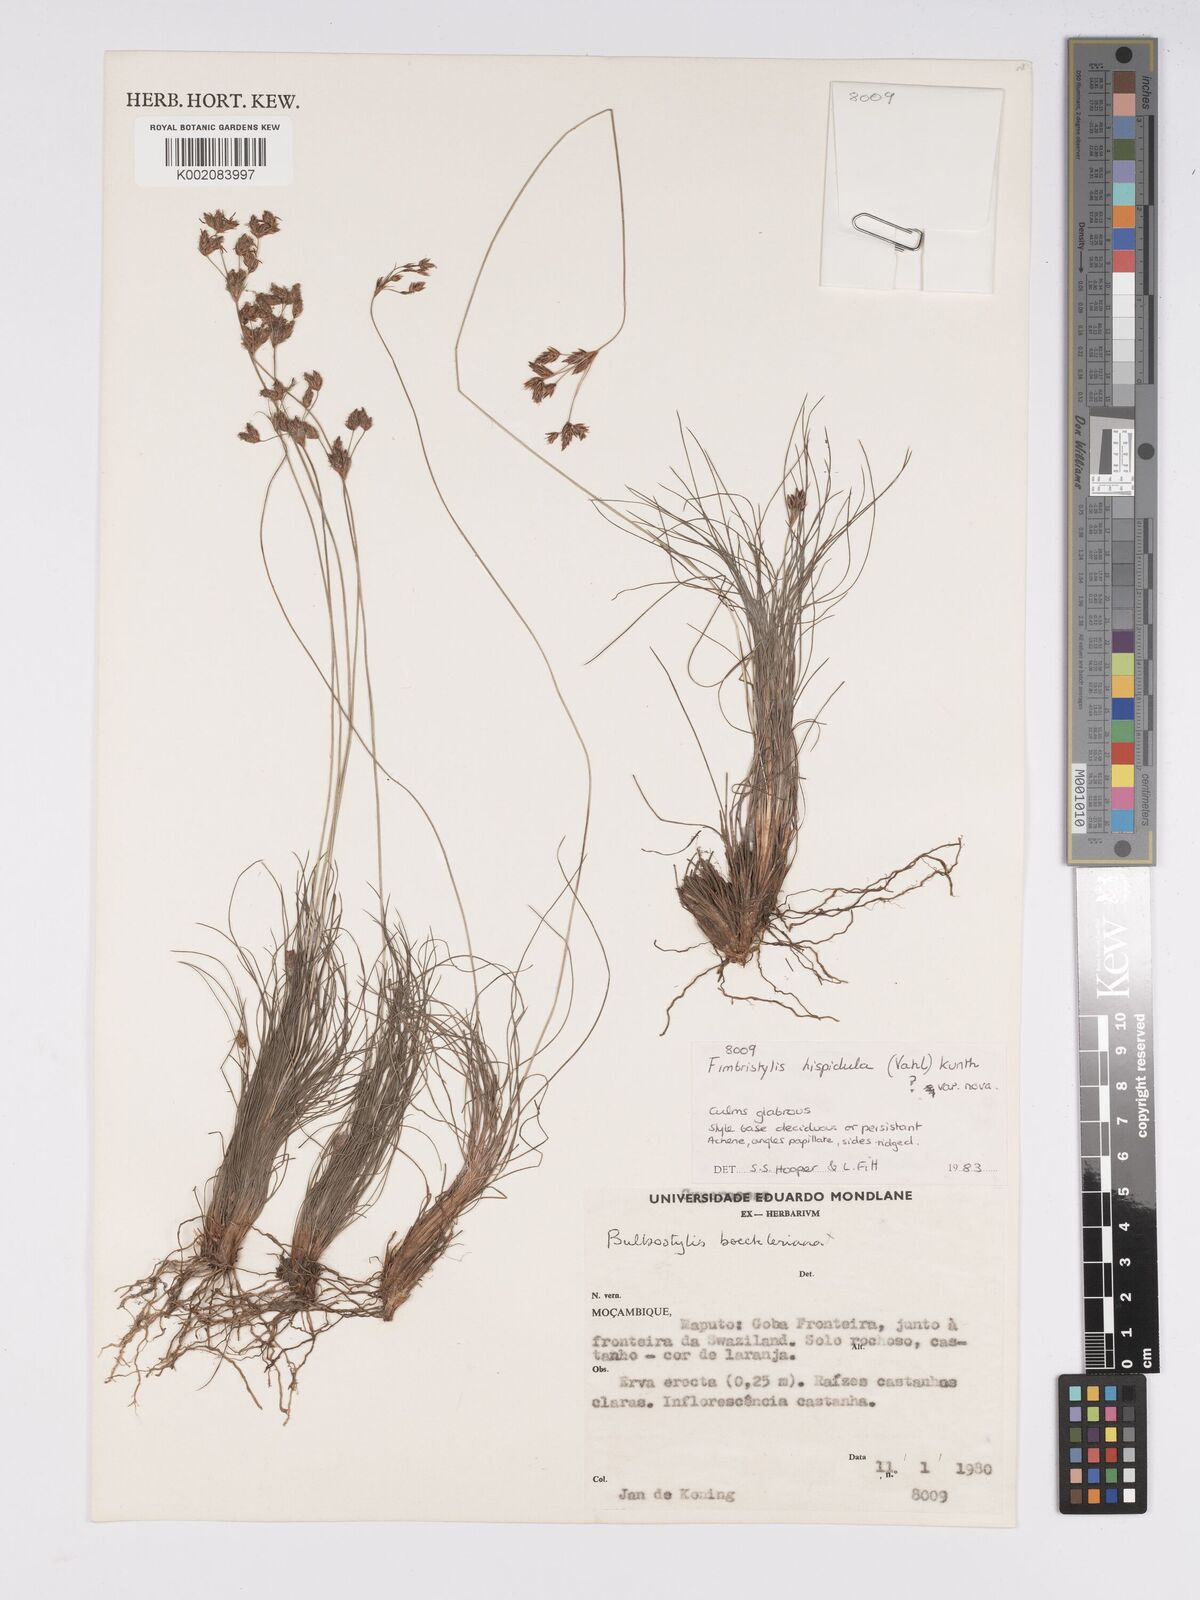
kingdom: Plantae
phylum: Tracheophyta
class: Liliopsida
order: Poales
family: Cyperaceae
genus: Bulbostylis
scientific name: Bulbostylis hispidula
